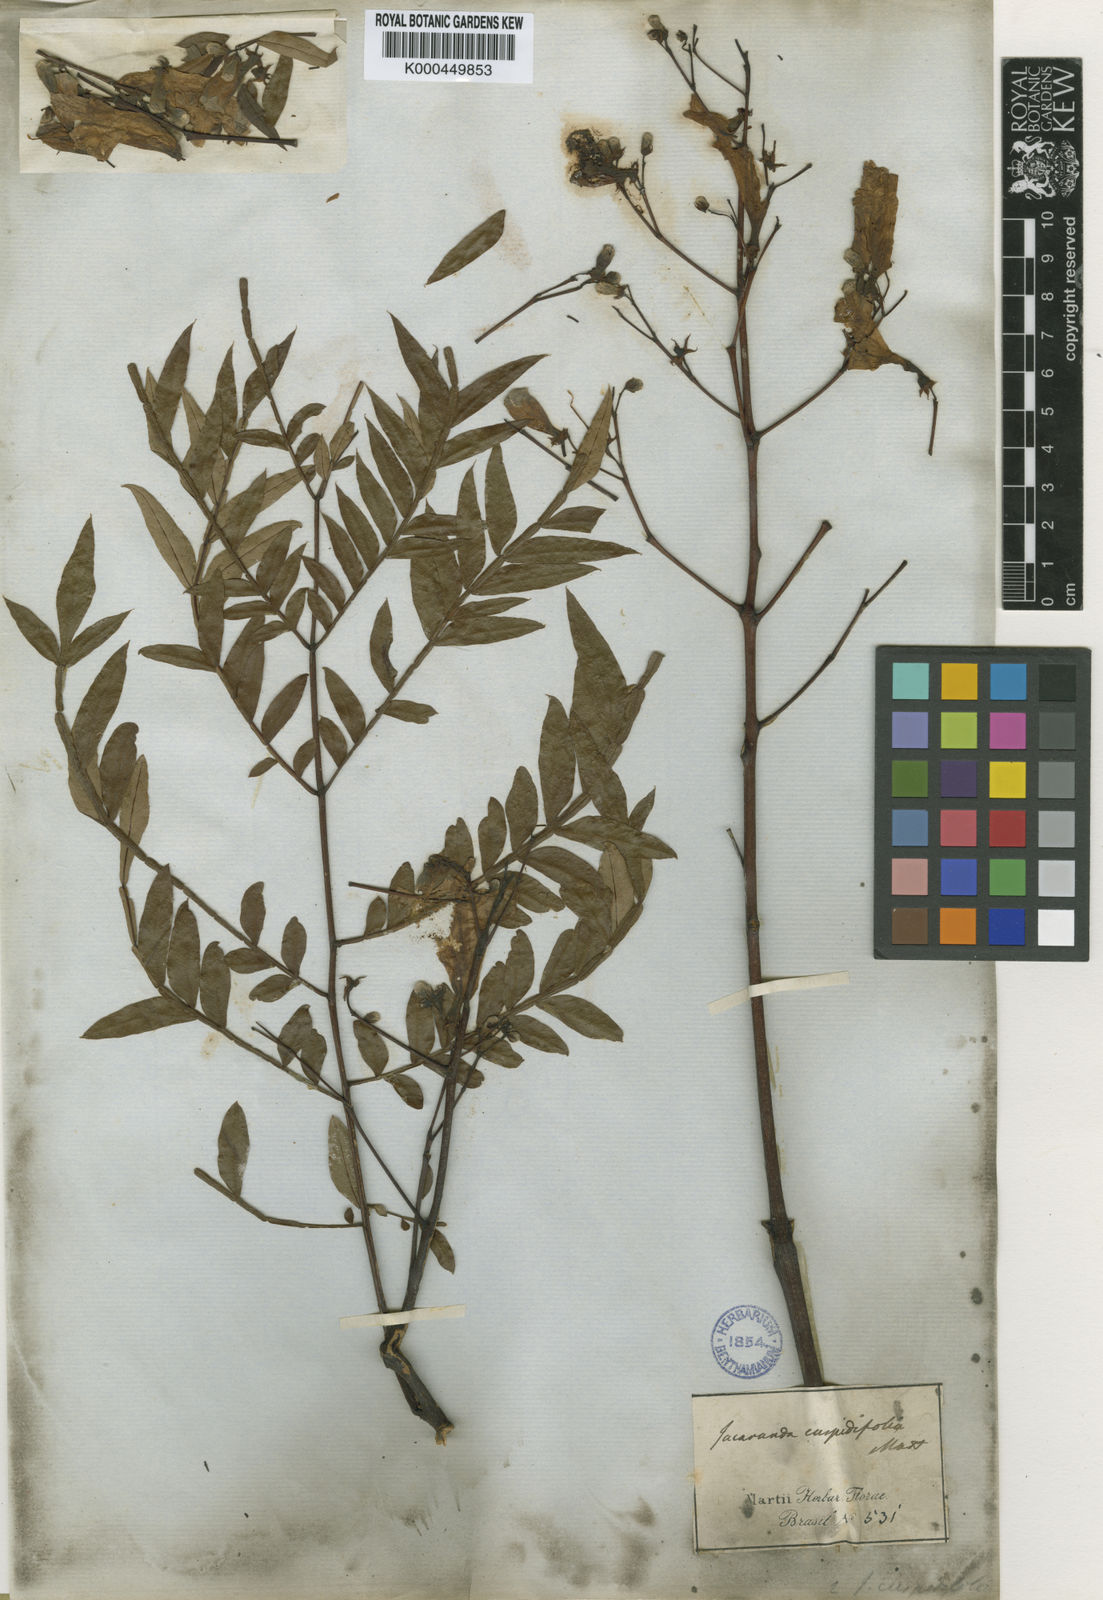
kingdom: Plantae
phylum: Tracheophyta
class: Magnoliopsida
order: Lamiales
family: Bignoniaceae
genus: Jacaranda
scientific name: Jacaranda cuspidifolia
